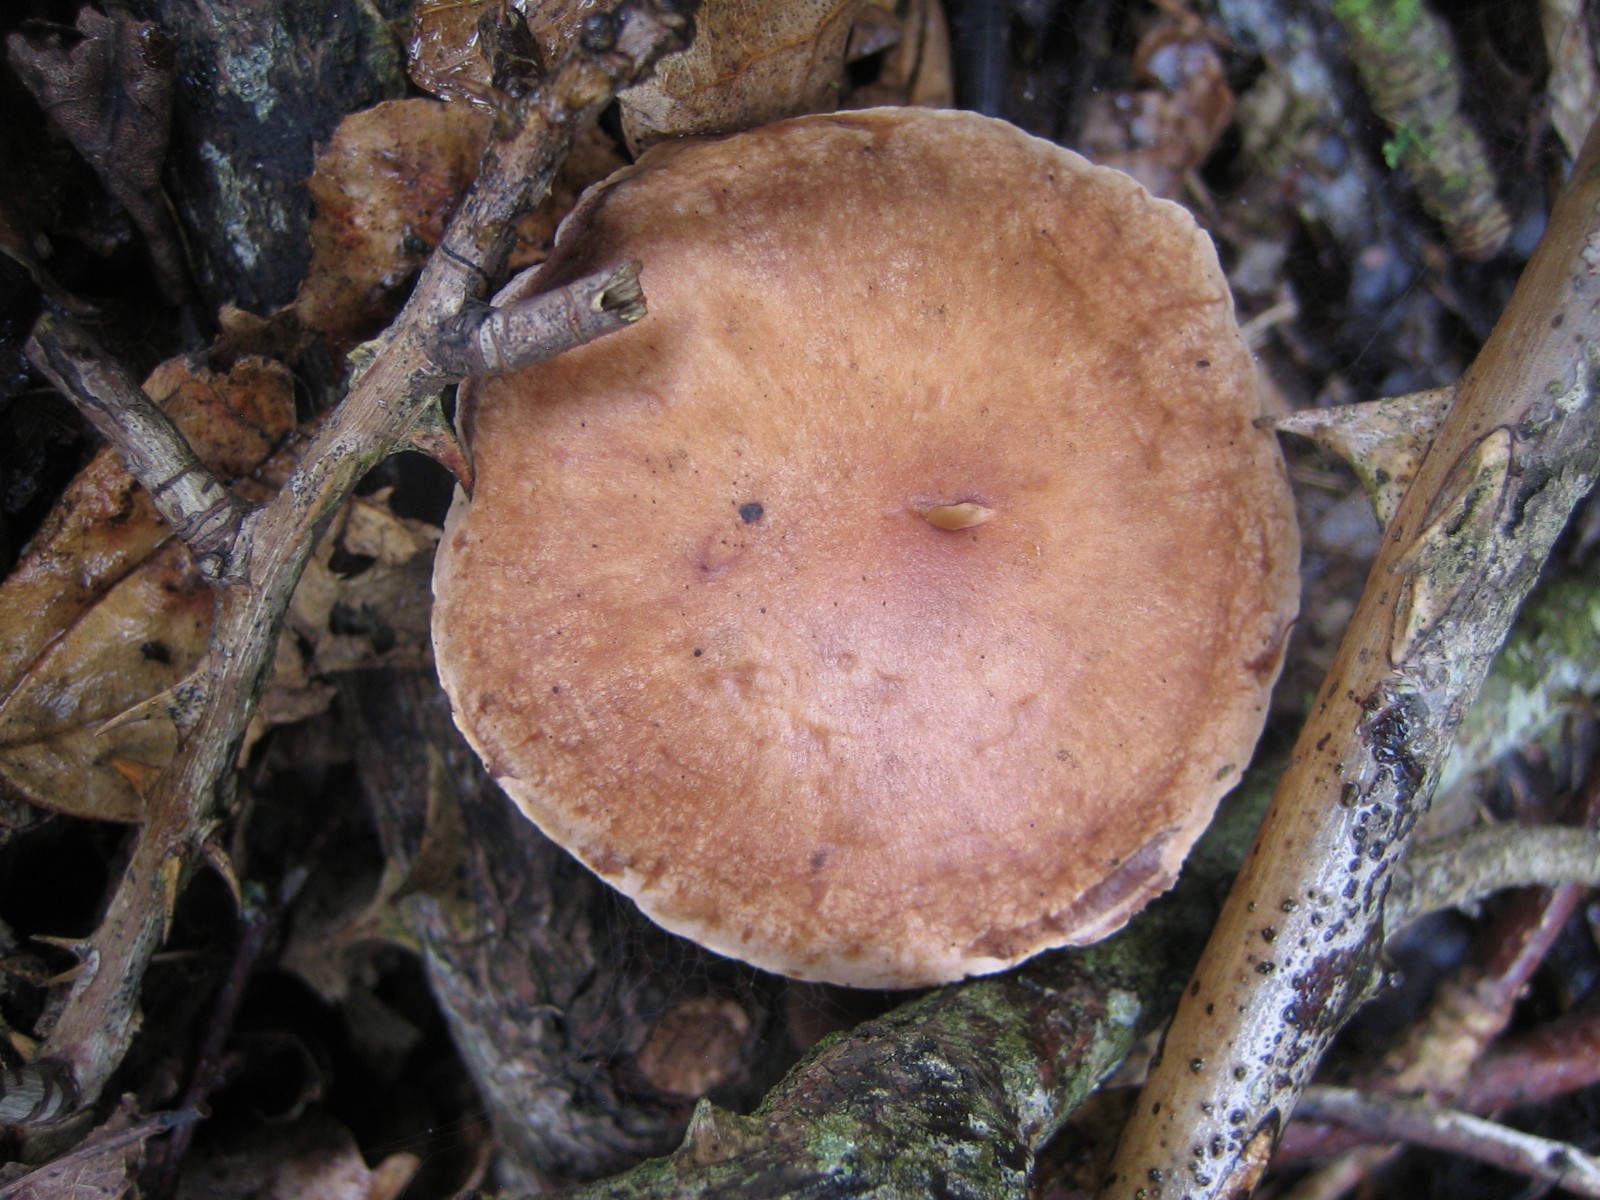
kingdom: Fungi
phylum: Basidiomycota
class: Agaricomycetes
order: Agaricales
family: Omphalotaceae
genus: Collybiopsis
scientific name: Collybiopsis peronata
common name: bestøvlet fladhat
